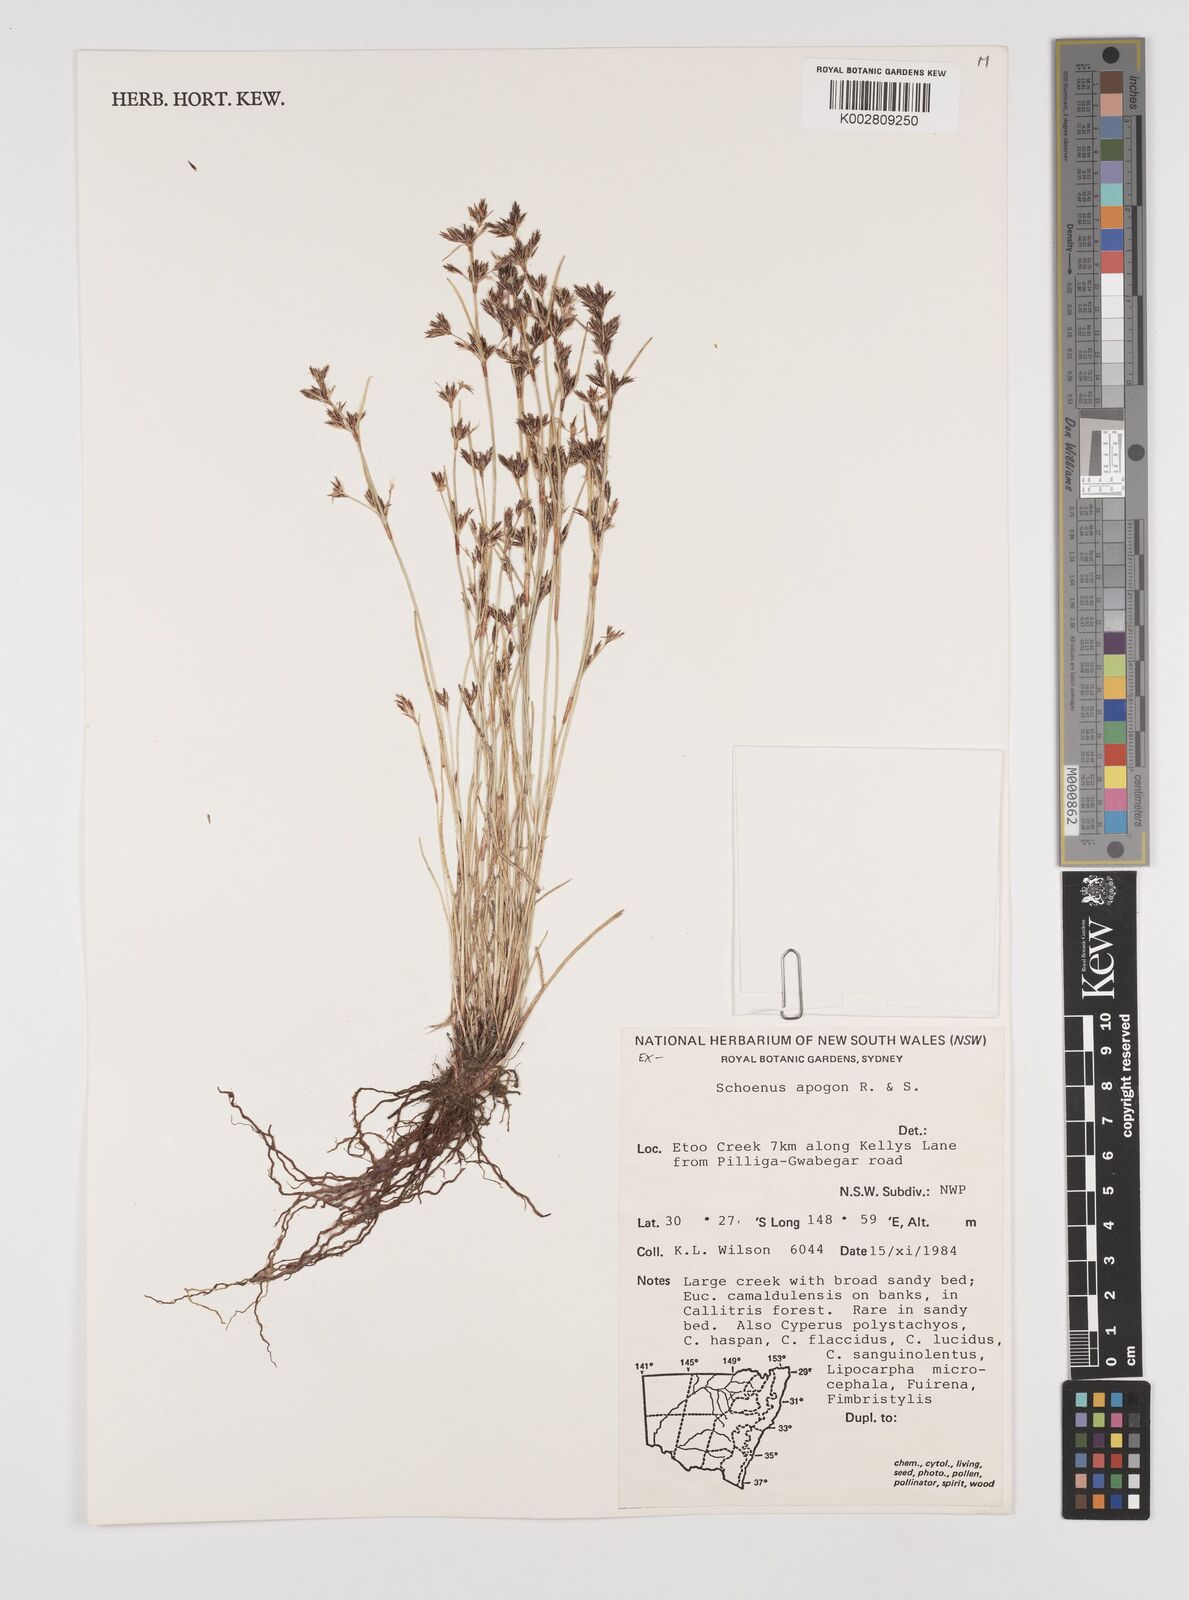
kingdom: Plantae
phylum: Tracheophyta
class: Liliopsida
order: Poales
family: Cyperaceae
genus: Schoenus
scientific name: Schoenus apogon
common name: Smooth bogrush
